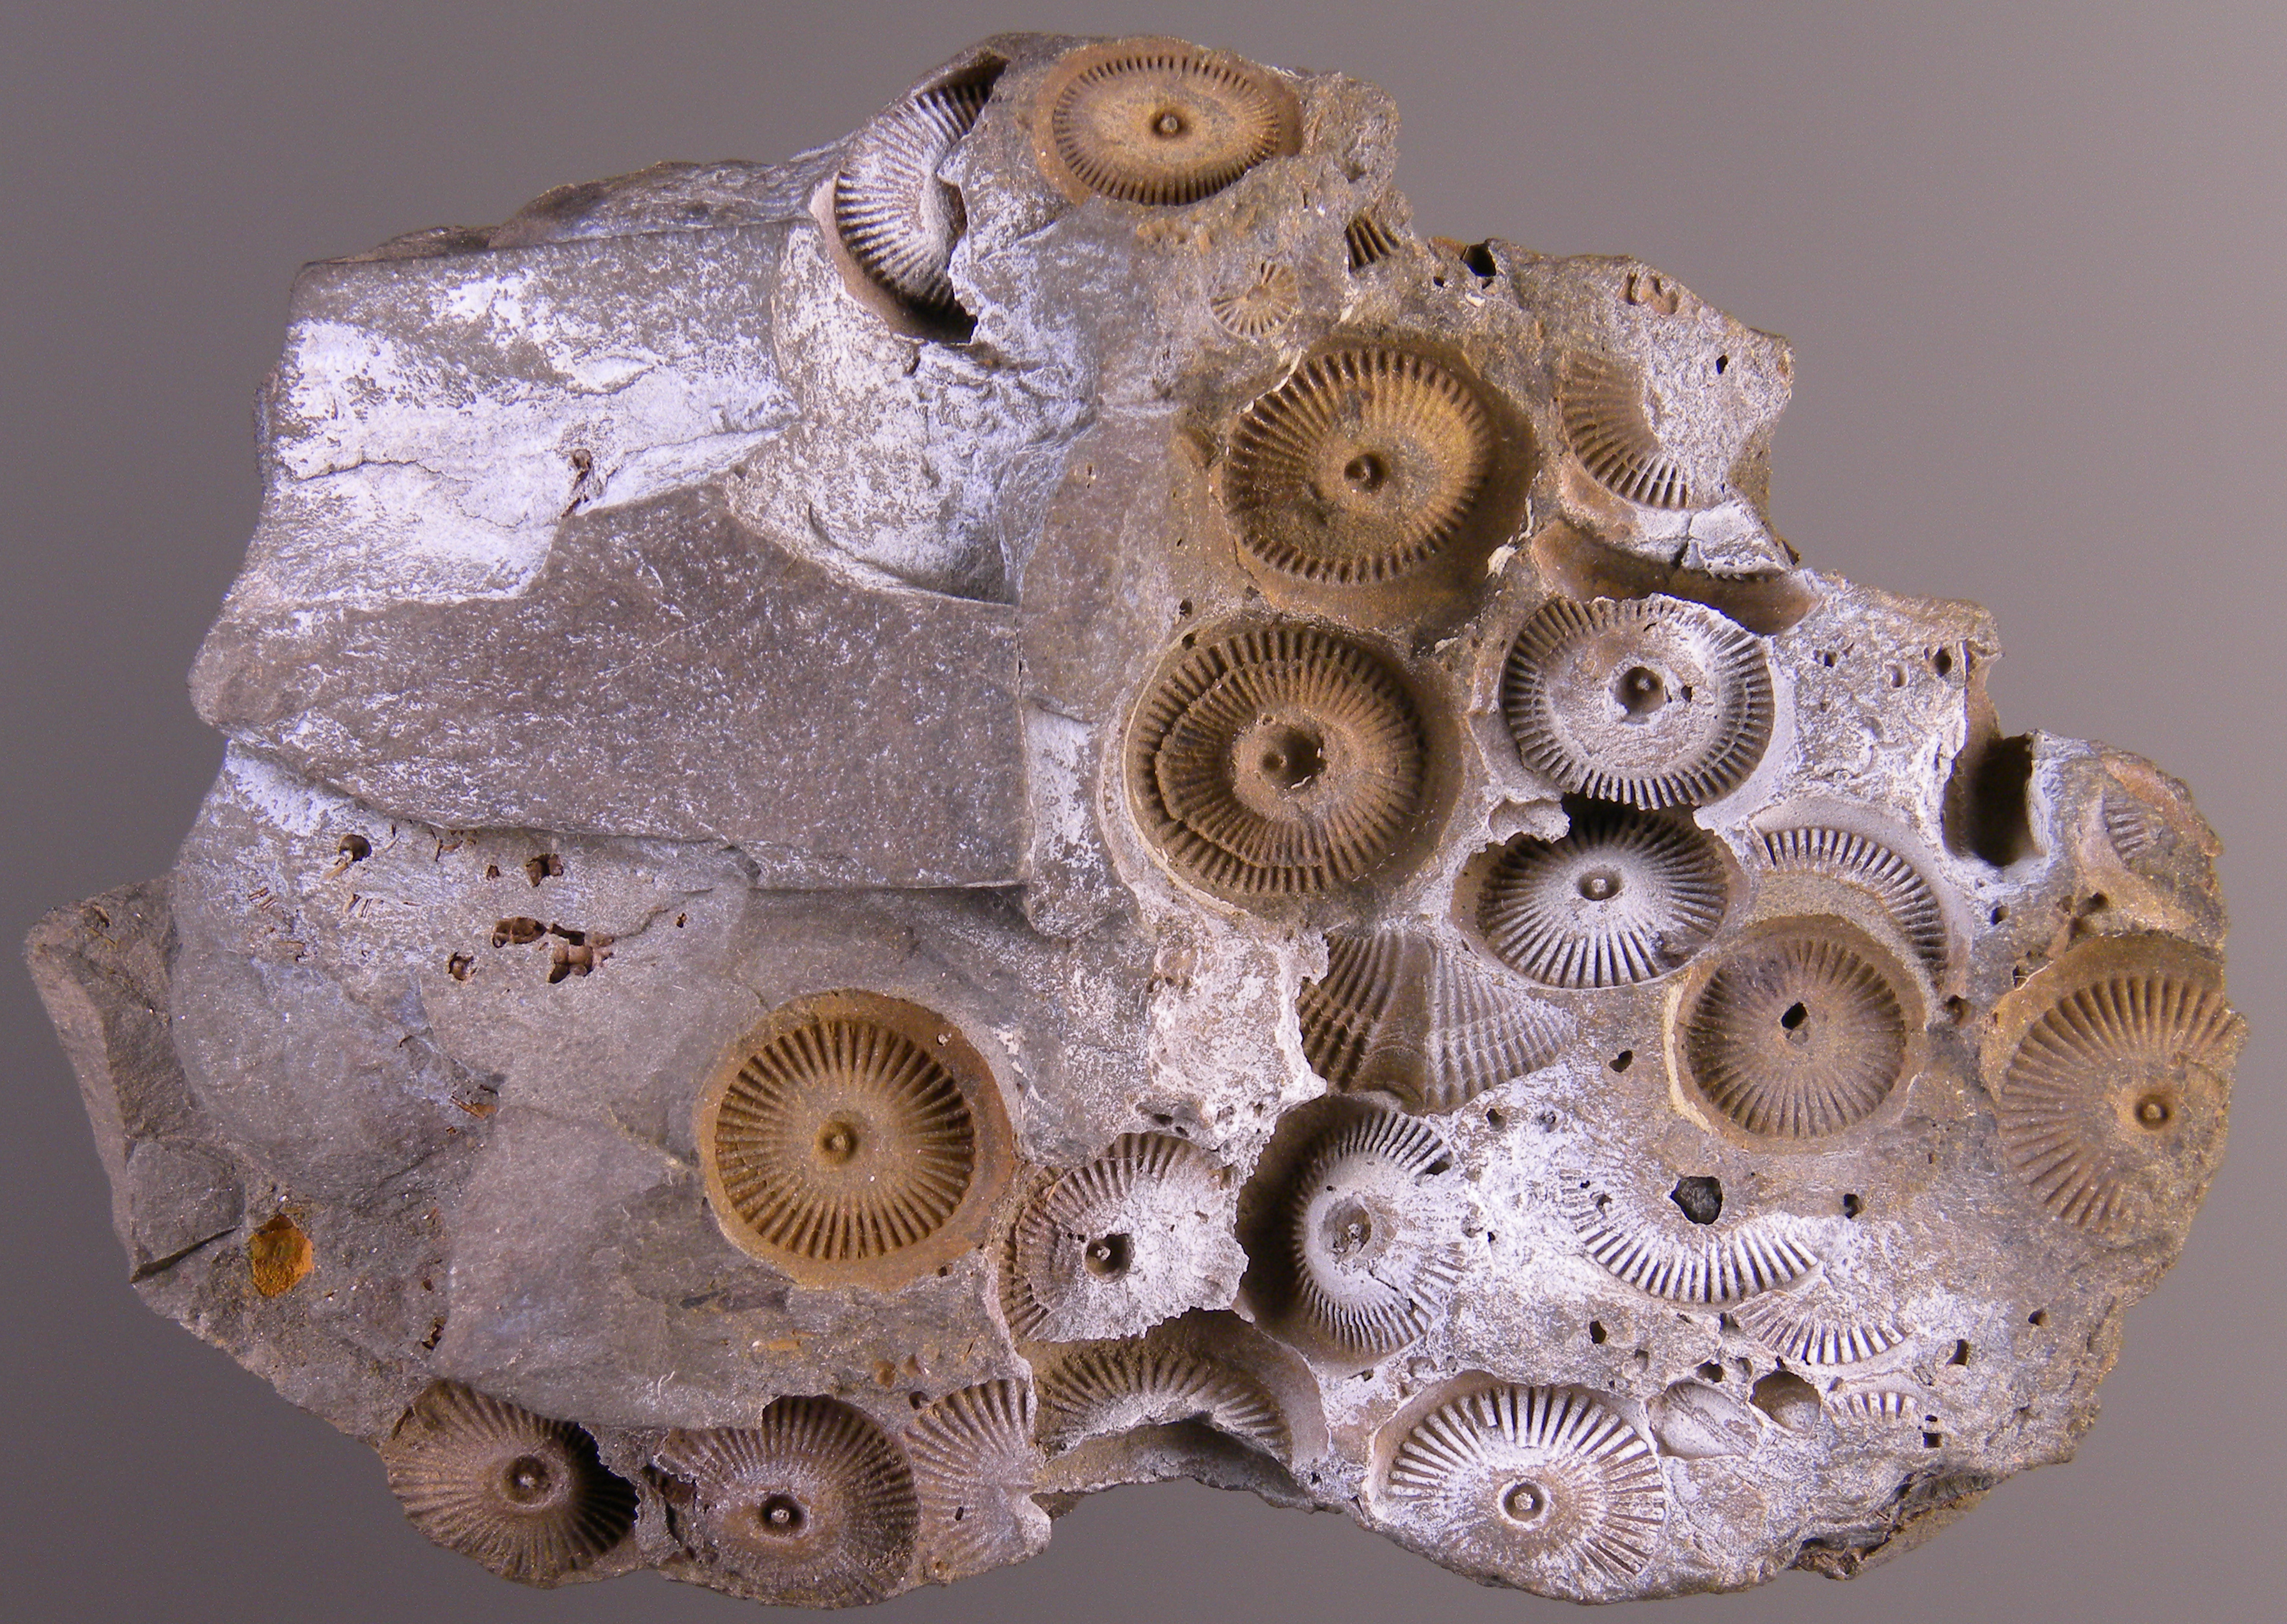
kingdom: Animalia
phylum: Echinodermata
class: Crinoidea
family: Melocrinitidae
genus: Ctenocrinus
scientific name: Ctenocrinus
